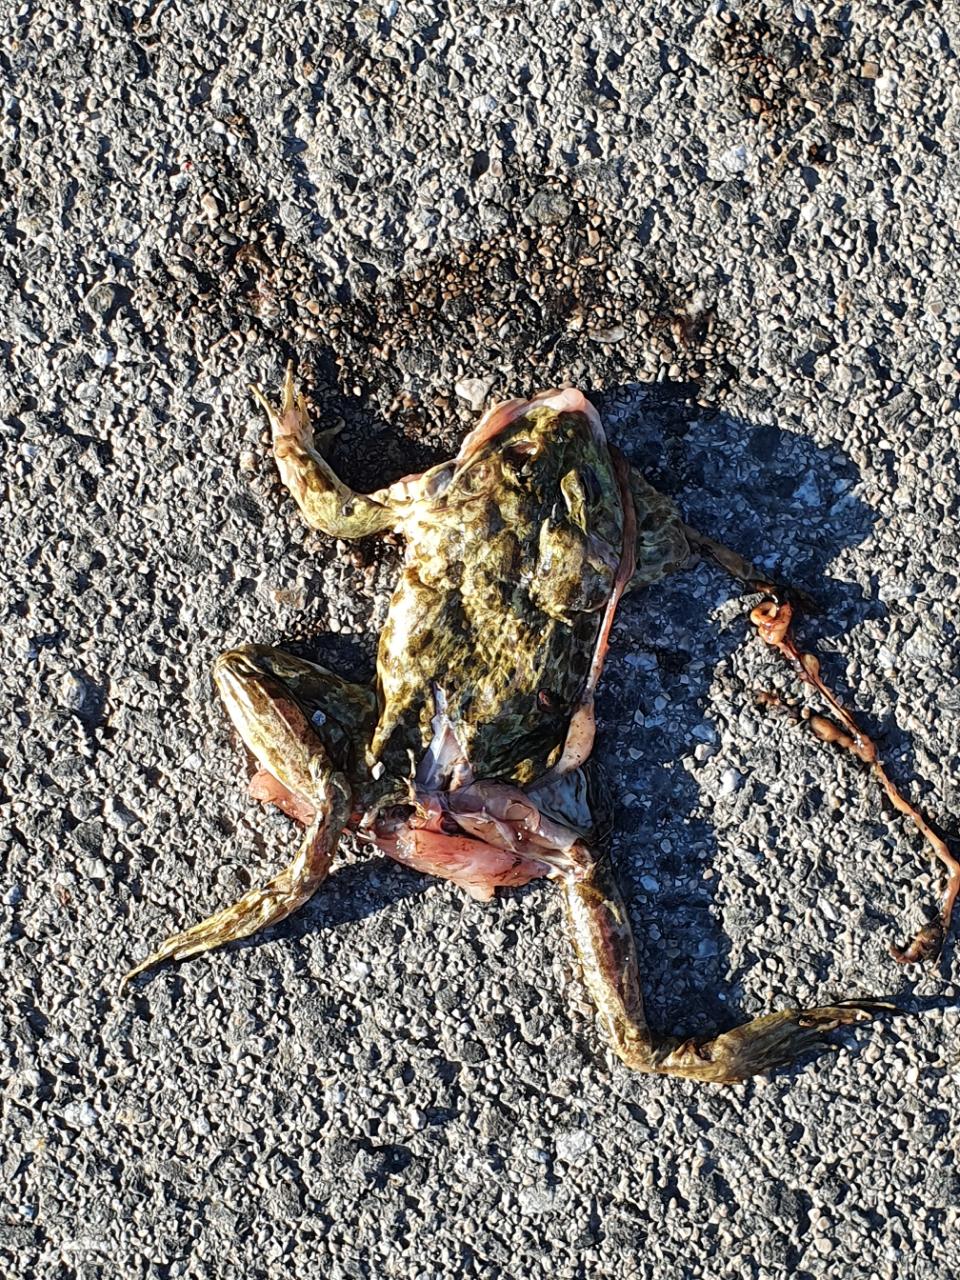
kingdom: Animalia
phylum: Chordata
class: Amphibia
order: Anura
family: Bufonidae
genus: Bufotes
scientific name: Bufotes viridis
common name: European green toad
